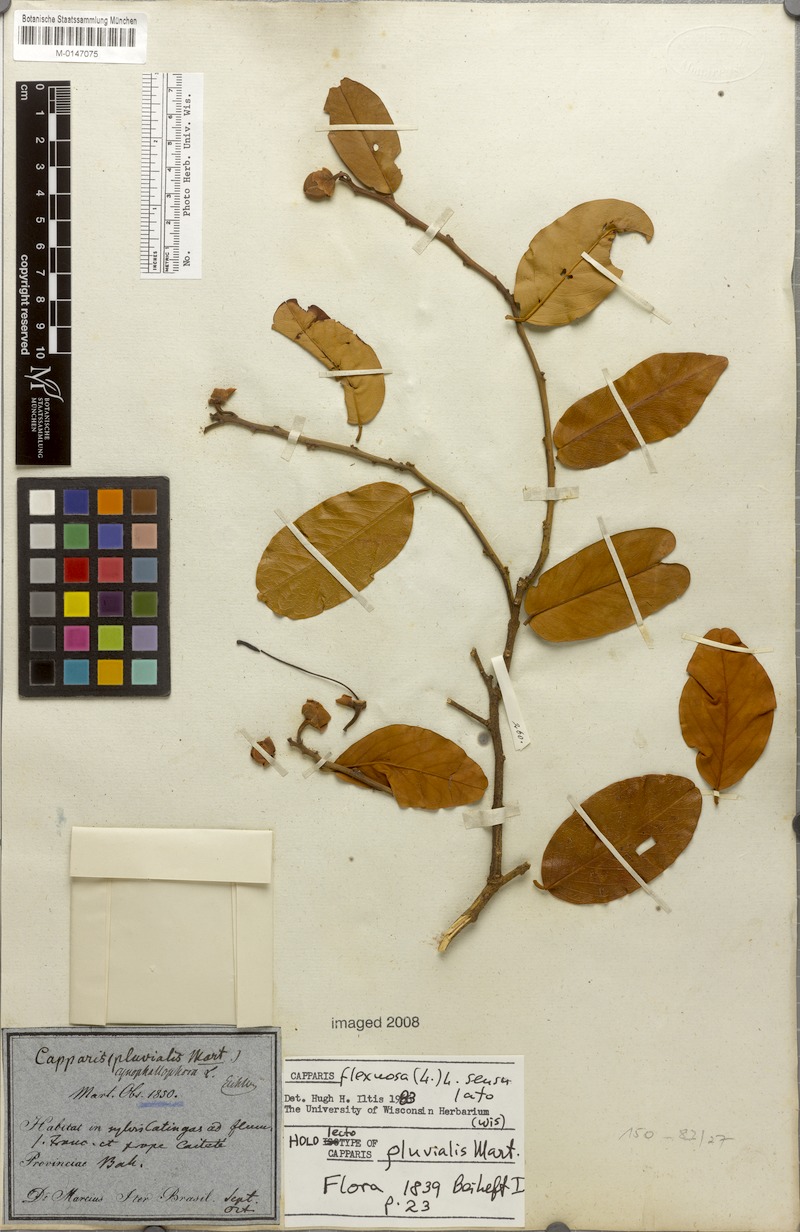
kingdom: Plantae
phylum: Tracheophyta
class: Magnoliopsida
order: Brassicales
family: Capparaceae
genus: Cynophalla
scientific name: Cynophalla flexuosa
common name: Capertree
